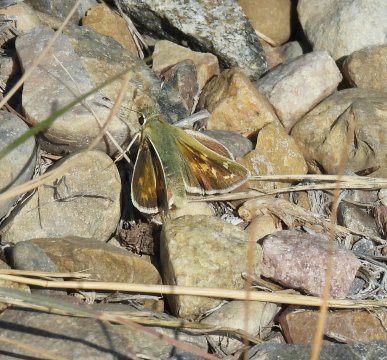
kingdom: Animalia
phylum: Arthropoda
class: Insecta
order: Lepidoptera
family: Hesperiidae
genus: Hesperia
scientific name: Hesperia comma
